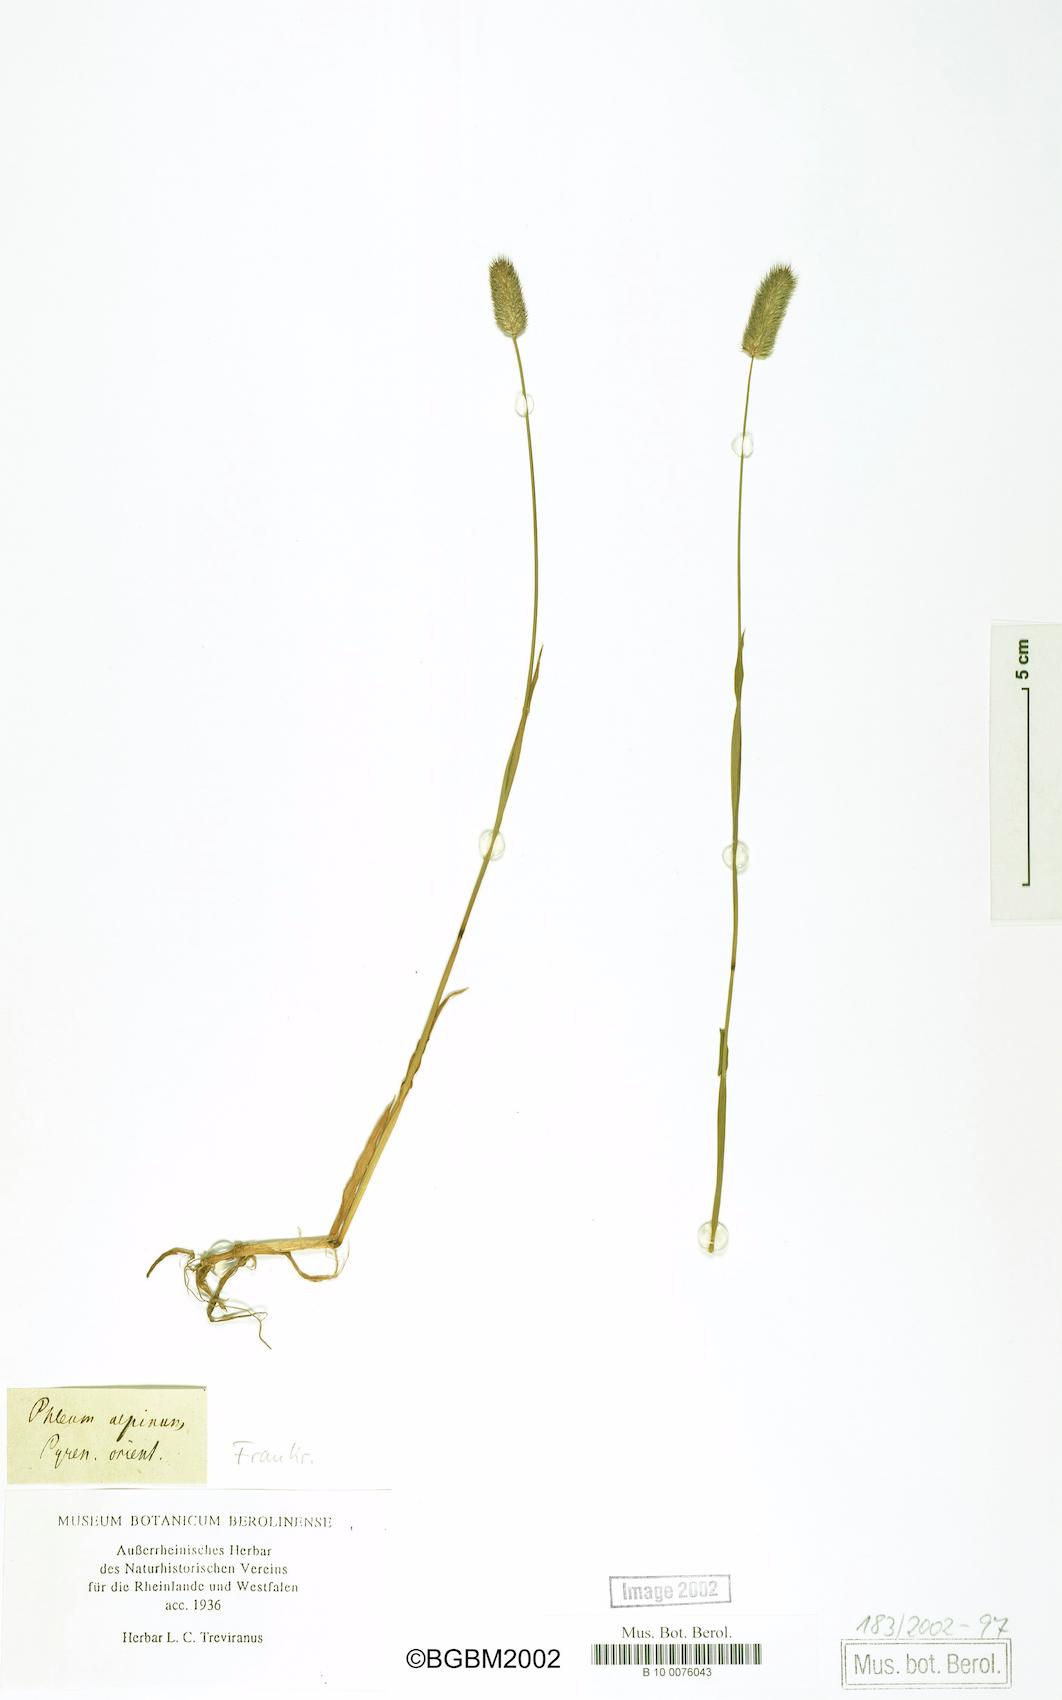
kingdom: Plantae
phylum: Tracheophyta
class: Liliopsida
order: Poales
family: Poaceae
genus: Phleum
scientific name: Phleum alpinum
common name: Alpine cat's-tail
